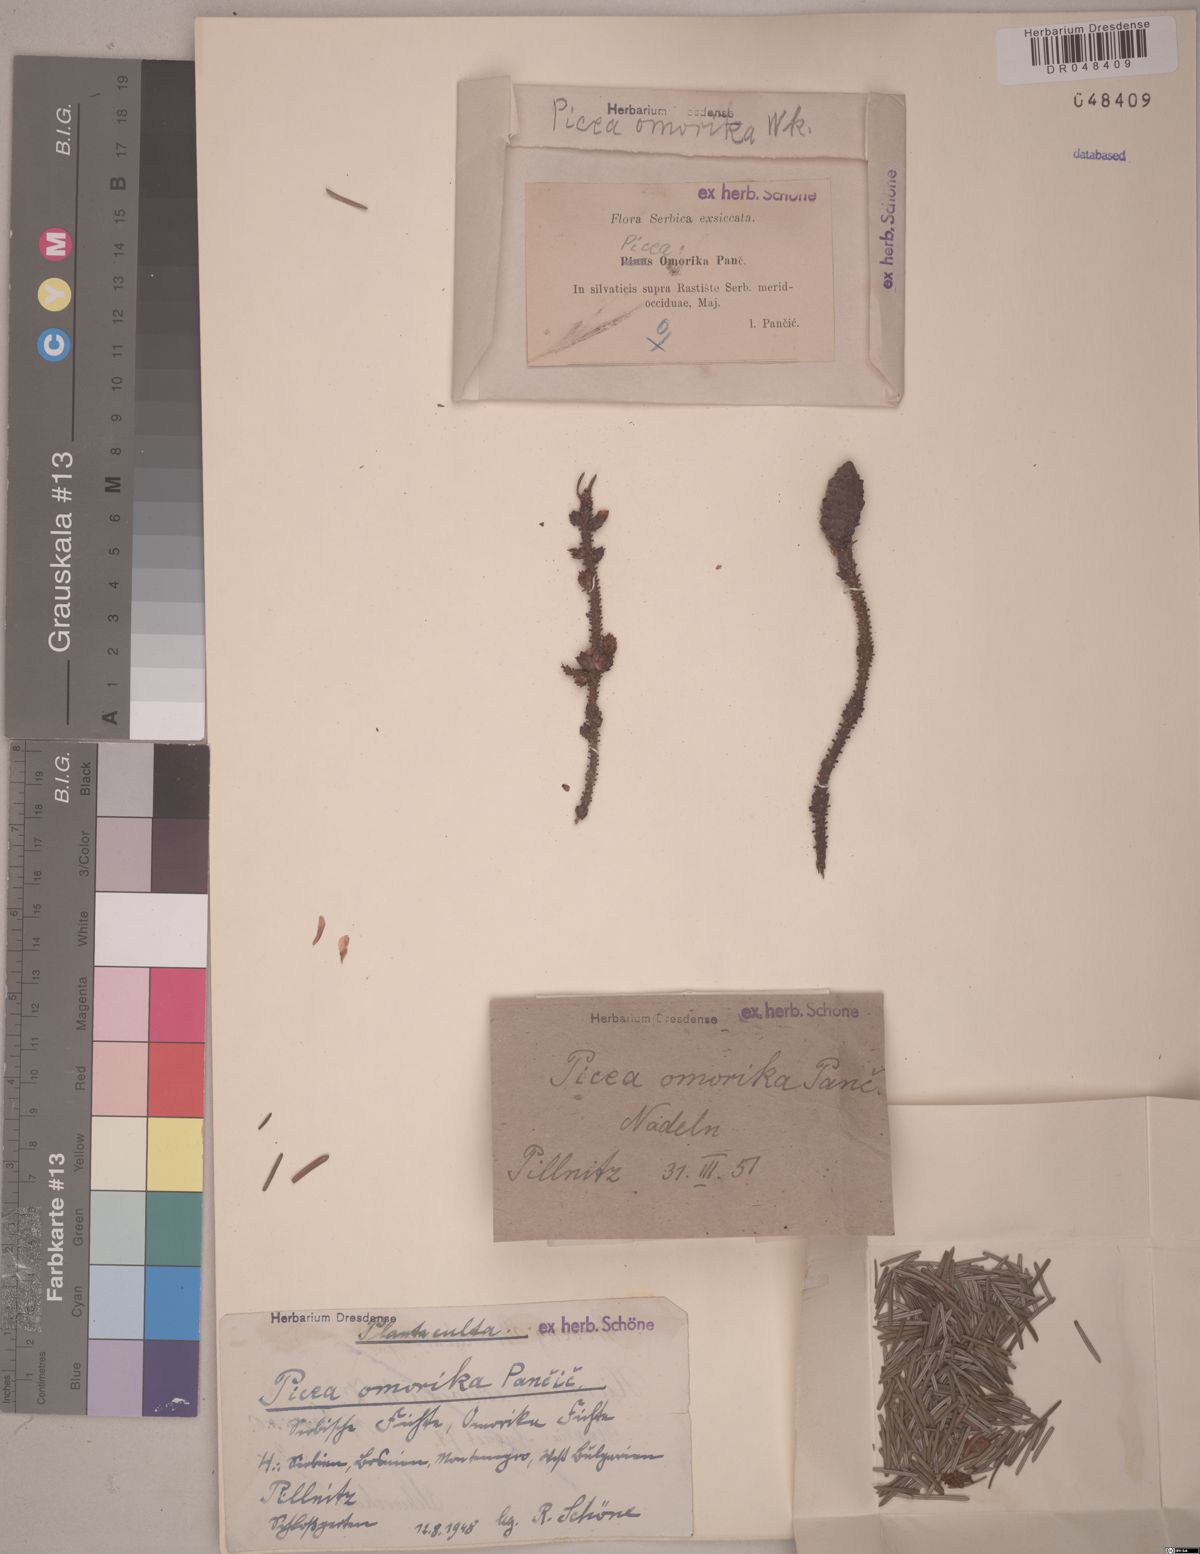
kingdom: Plantae
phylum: Tracheophyta
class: Pinopsida
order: Pinales
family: Pinaceae
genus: Picea
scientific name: Picea omorika
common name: Serbian spruce
